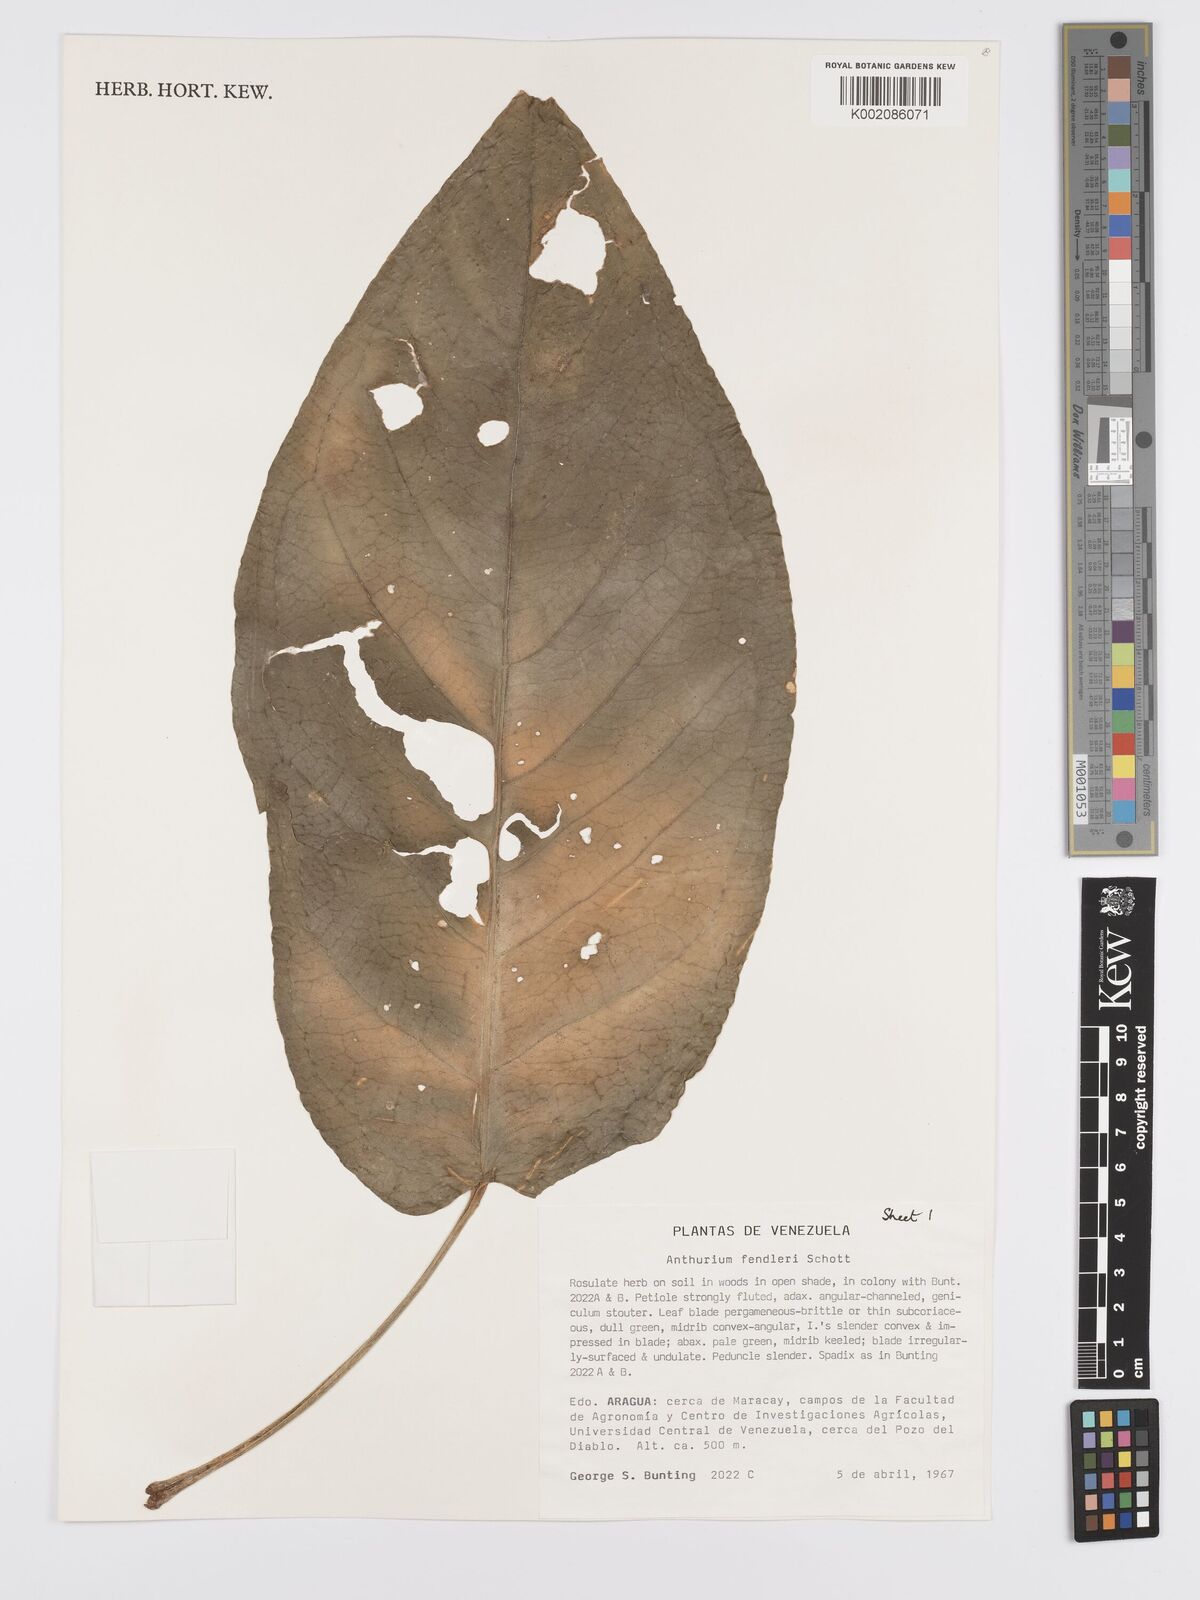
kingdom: Plantae
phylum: Tracheophyta
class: Liliopsida
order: Alismatales
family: Araceae
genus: Anthurium
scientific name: Anthurium fendleri
